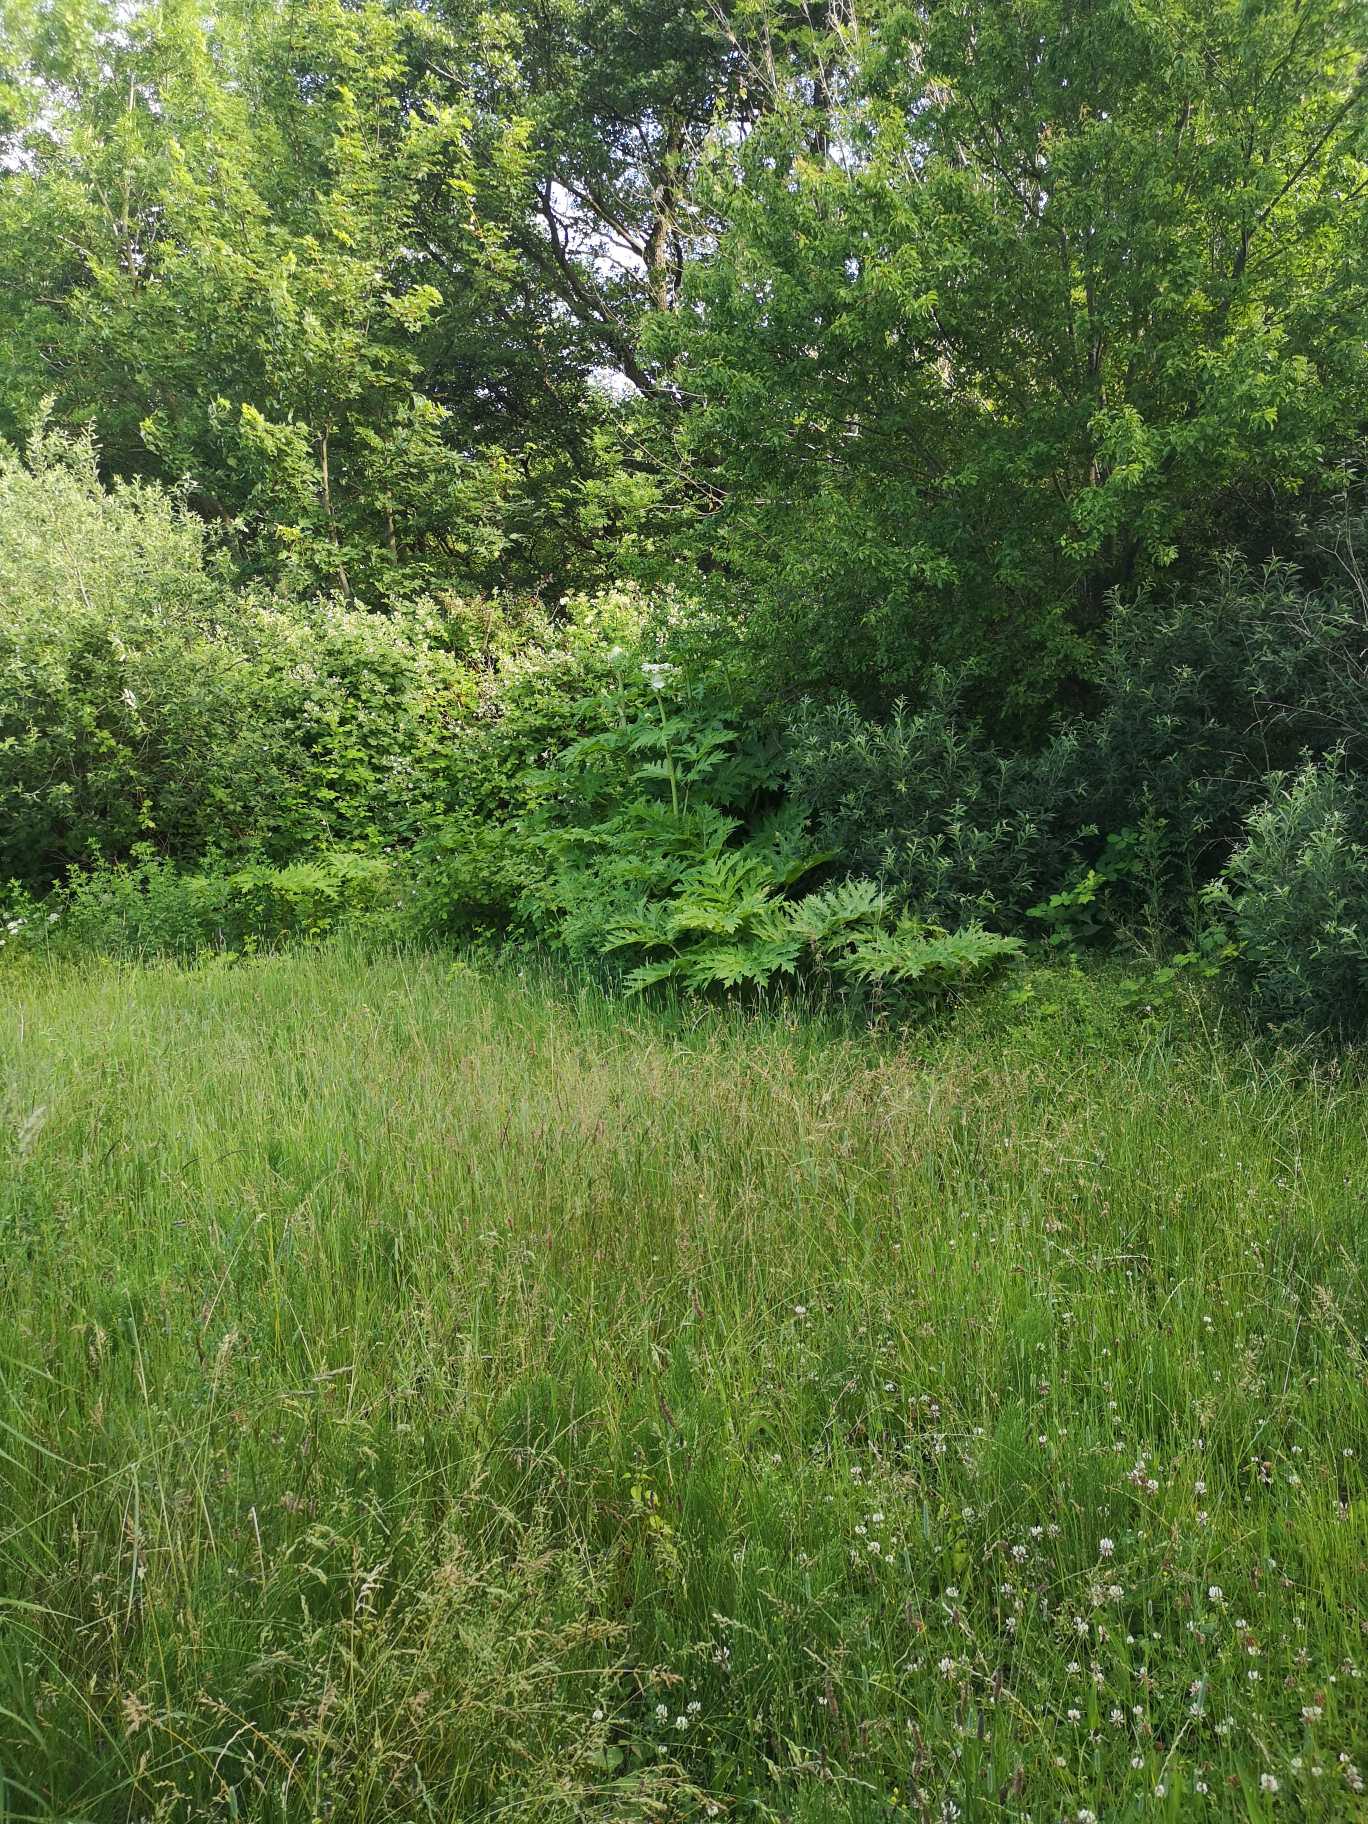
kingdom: Plantae
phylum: Tracheophyta
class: Magnoliopsida
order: Apiales
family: Apiaceae
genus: Heracleum
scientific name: Heracleum mantegazzianum
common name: Kæmpe-bjørneklo
